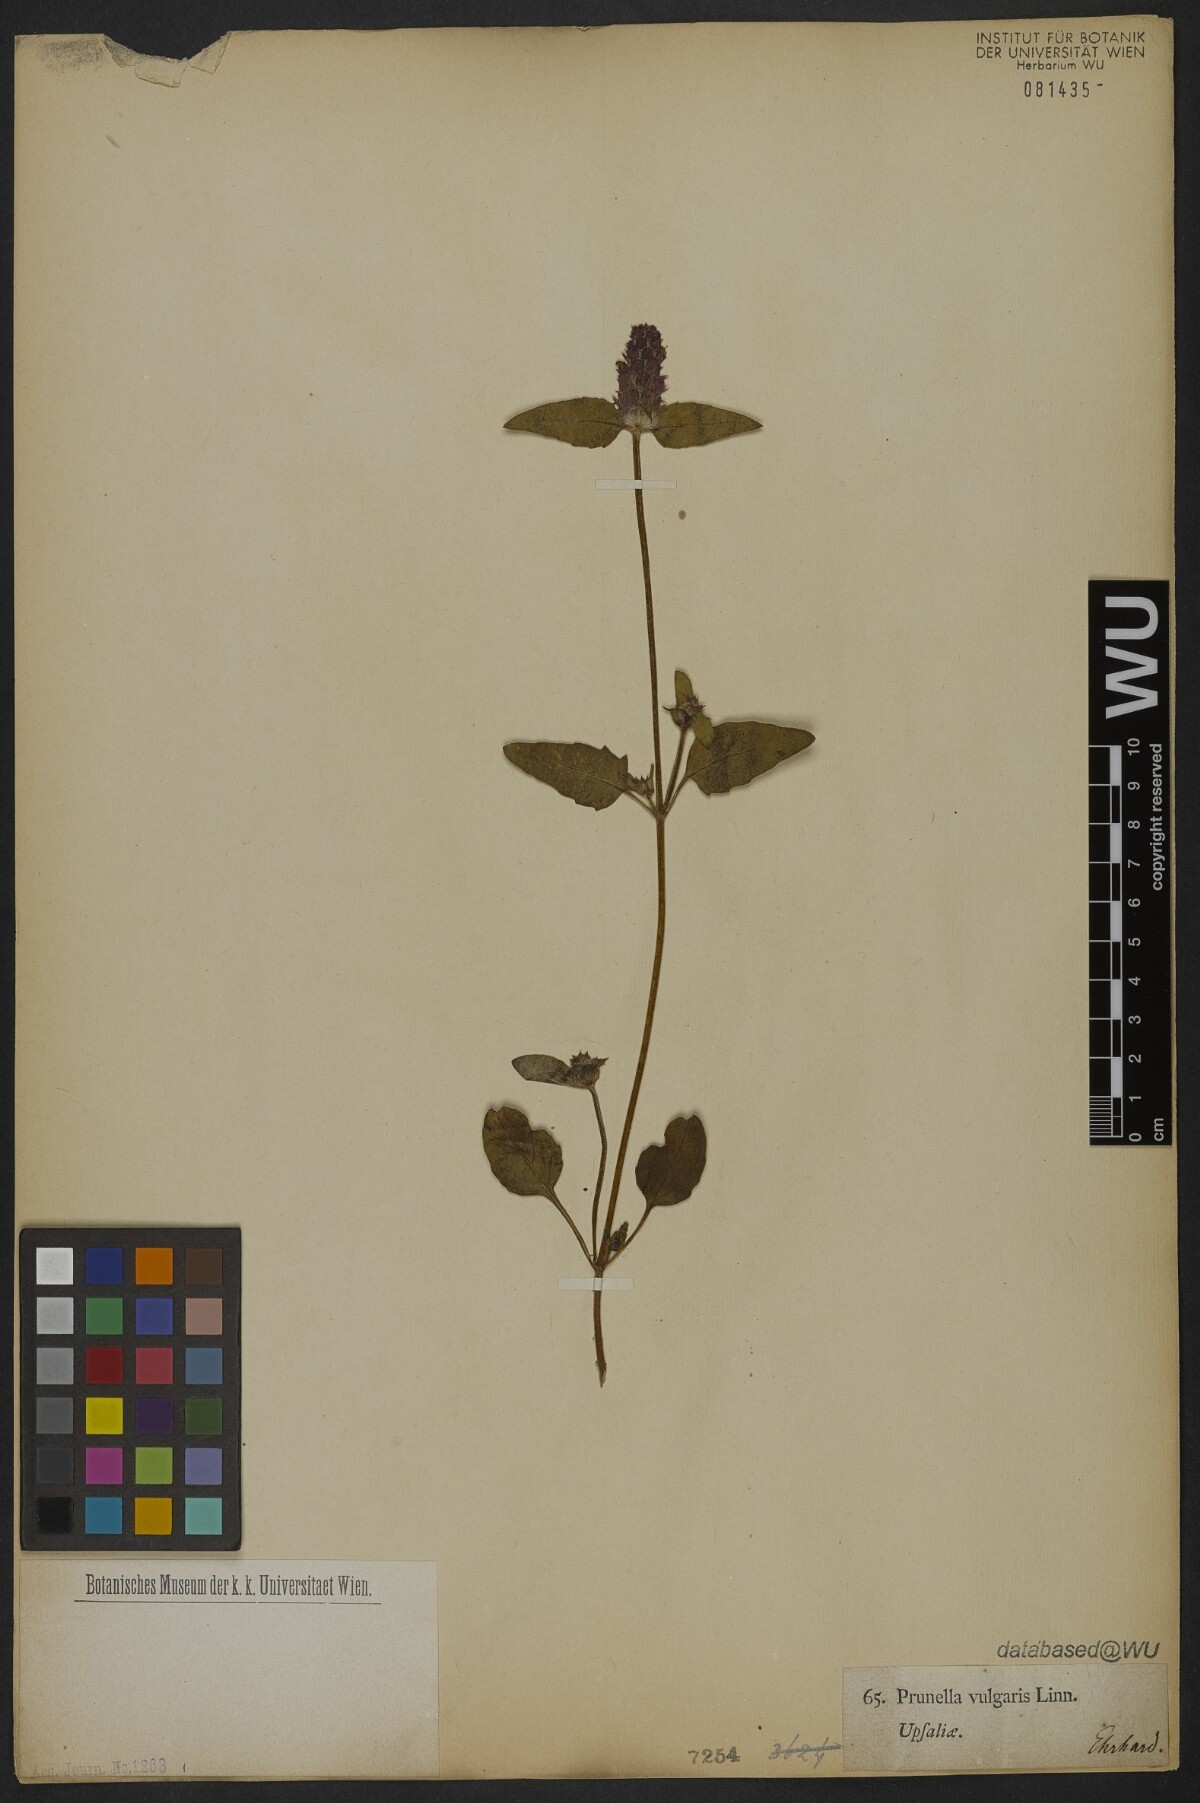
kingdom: Plantae
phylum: Tracheophyta
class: Magnoliopsida
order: Lamiales
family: Lamiaceae
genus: Prunella
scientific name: Prunella vulgaris
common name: Heal-all
